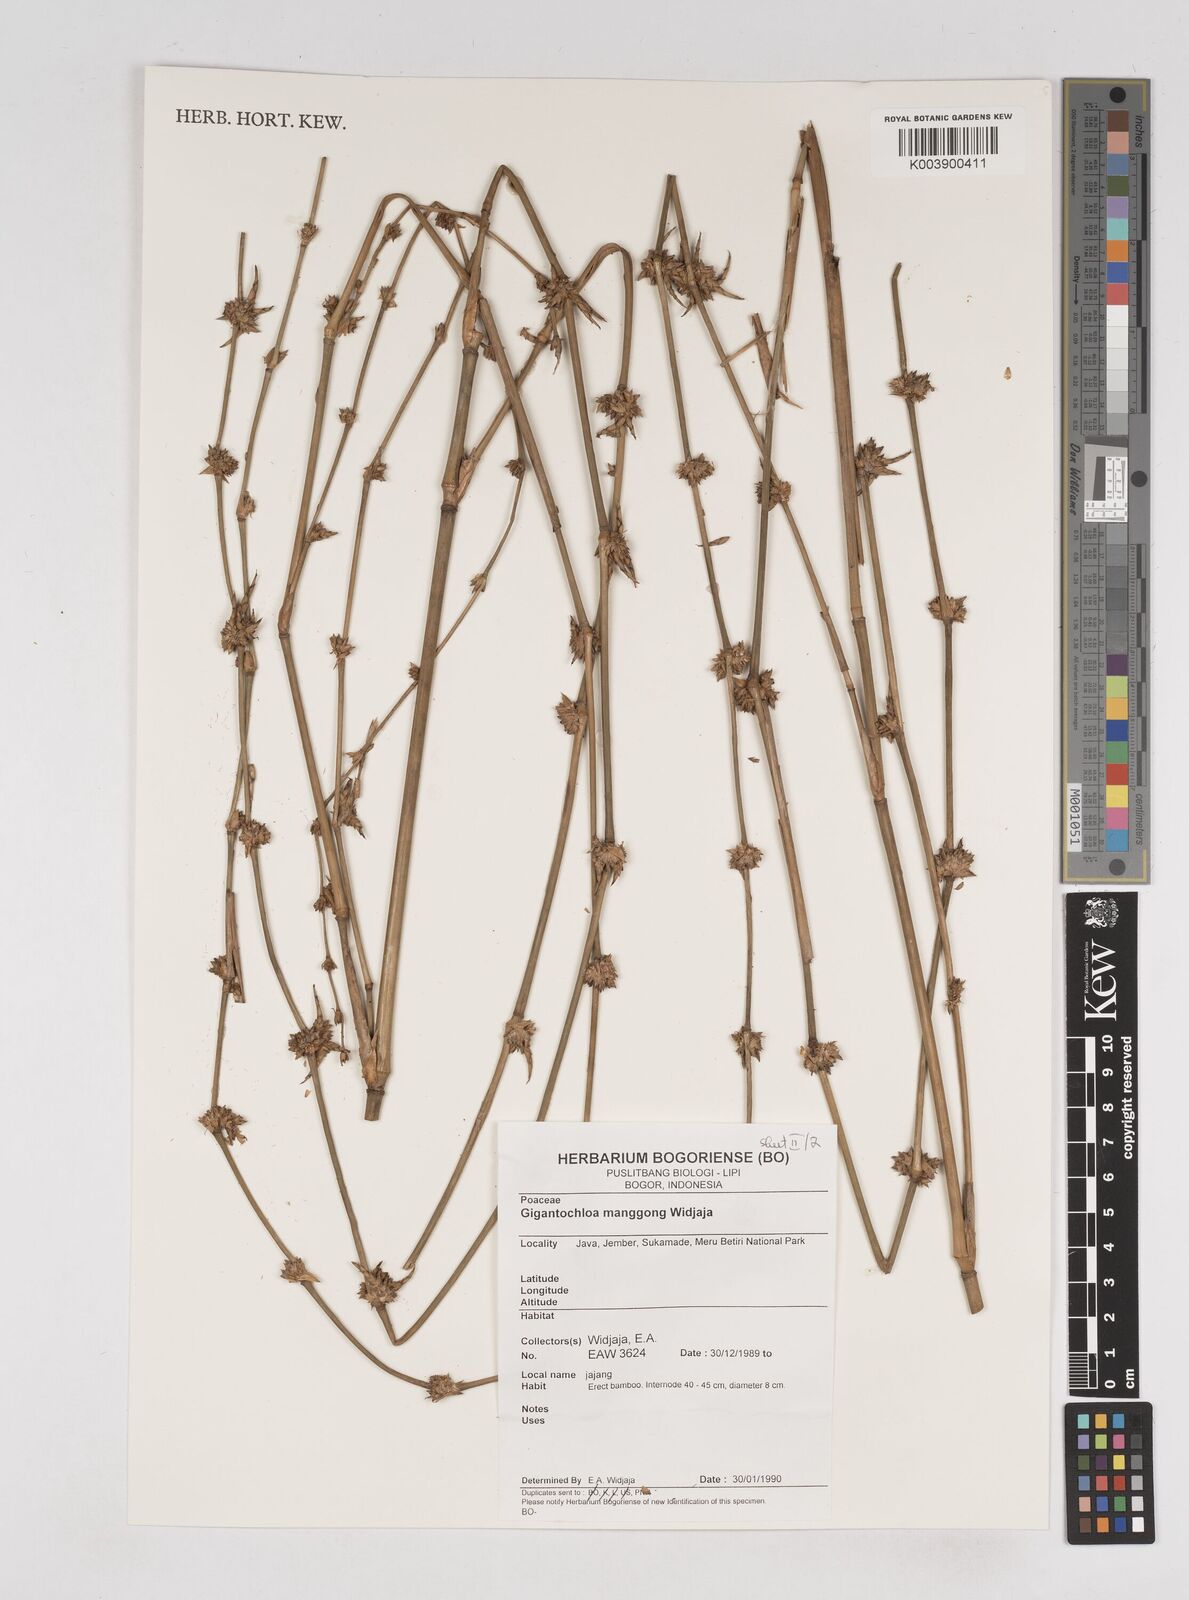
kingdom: Plantae
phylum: Tracheophyta
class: Liliopsida
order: Poales
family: Poaceae
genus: Gigantochloa
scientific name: Gigantochloa manggong
